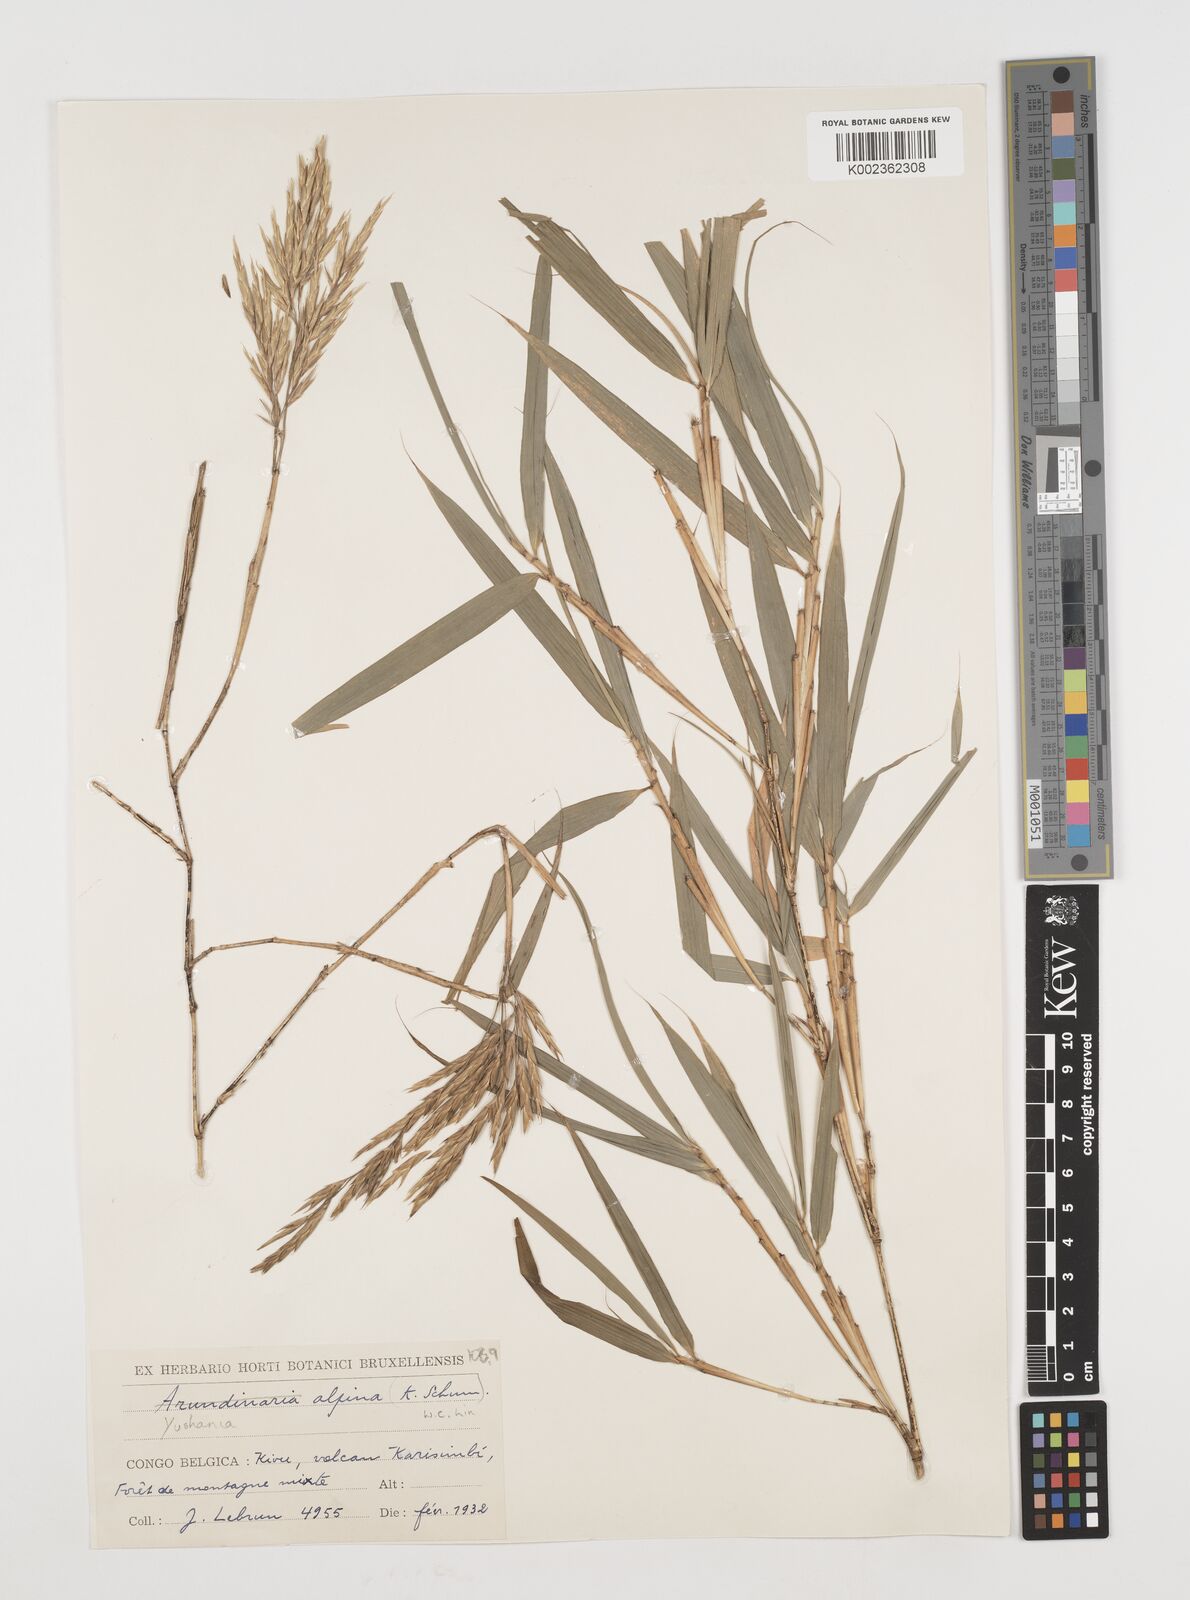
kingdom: Plantae
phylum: Tracheophyta
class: Liliopsida
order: Poales
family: Poaceae
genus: Oldeania
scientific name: Oldeania alpina
